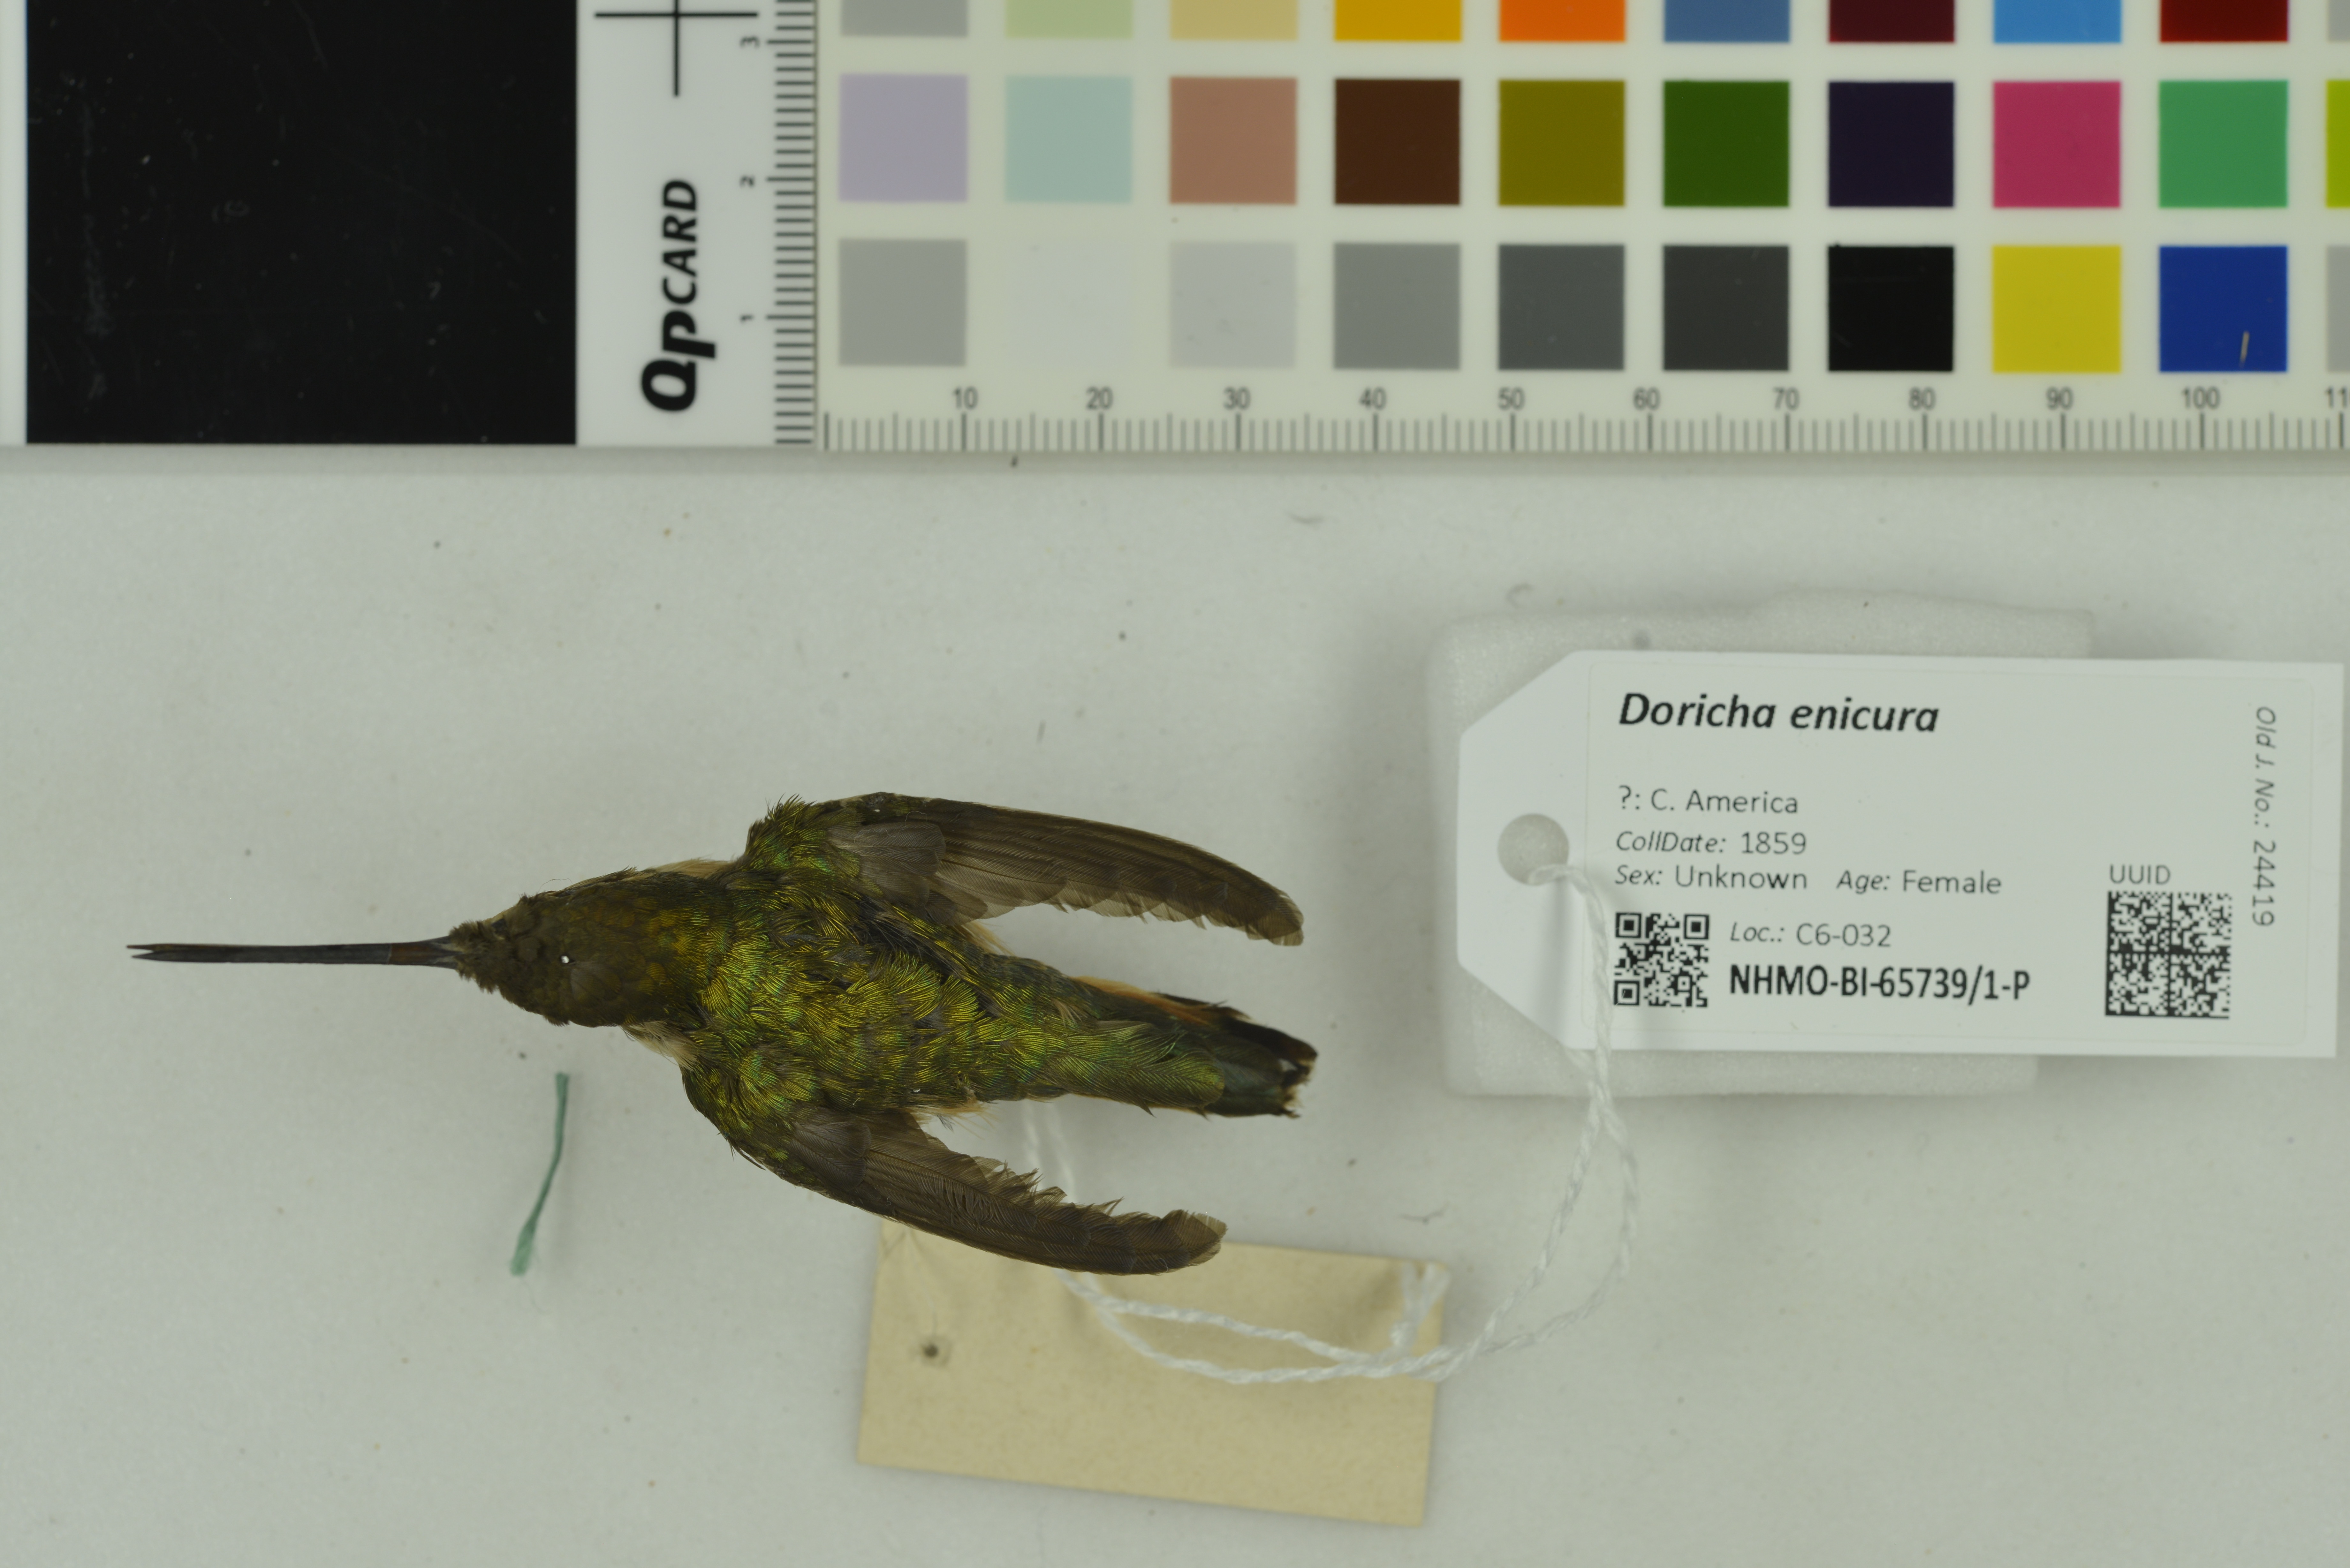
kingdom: Animalia
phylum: Chordata
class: Aves
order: Apodiformes
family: Trochilidae
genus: Doricha
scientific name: Doricha enicura
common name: Slender sheartail
